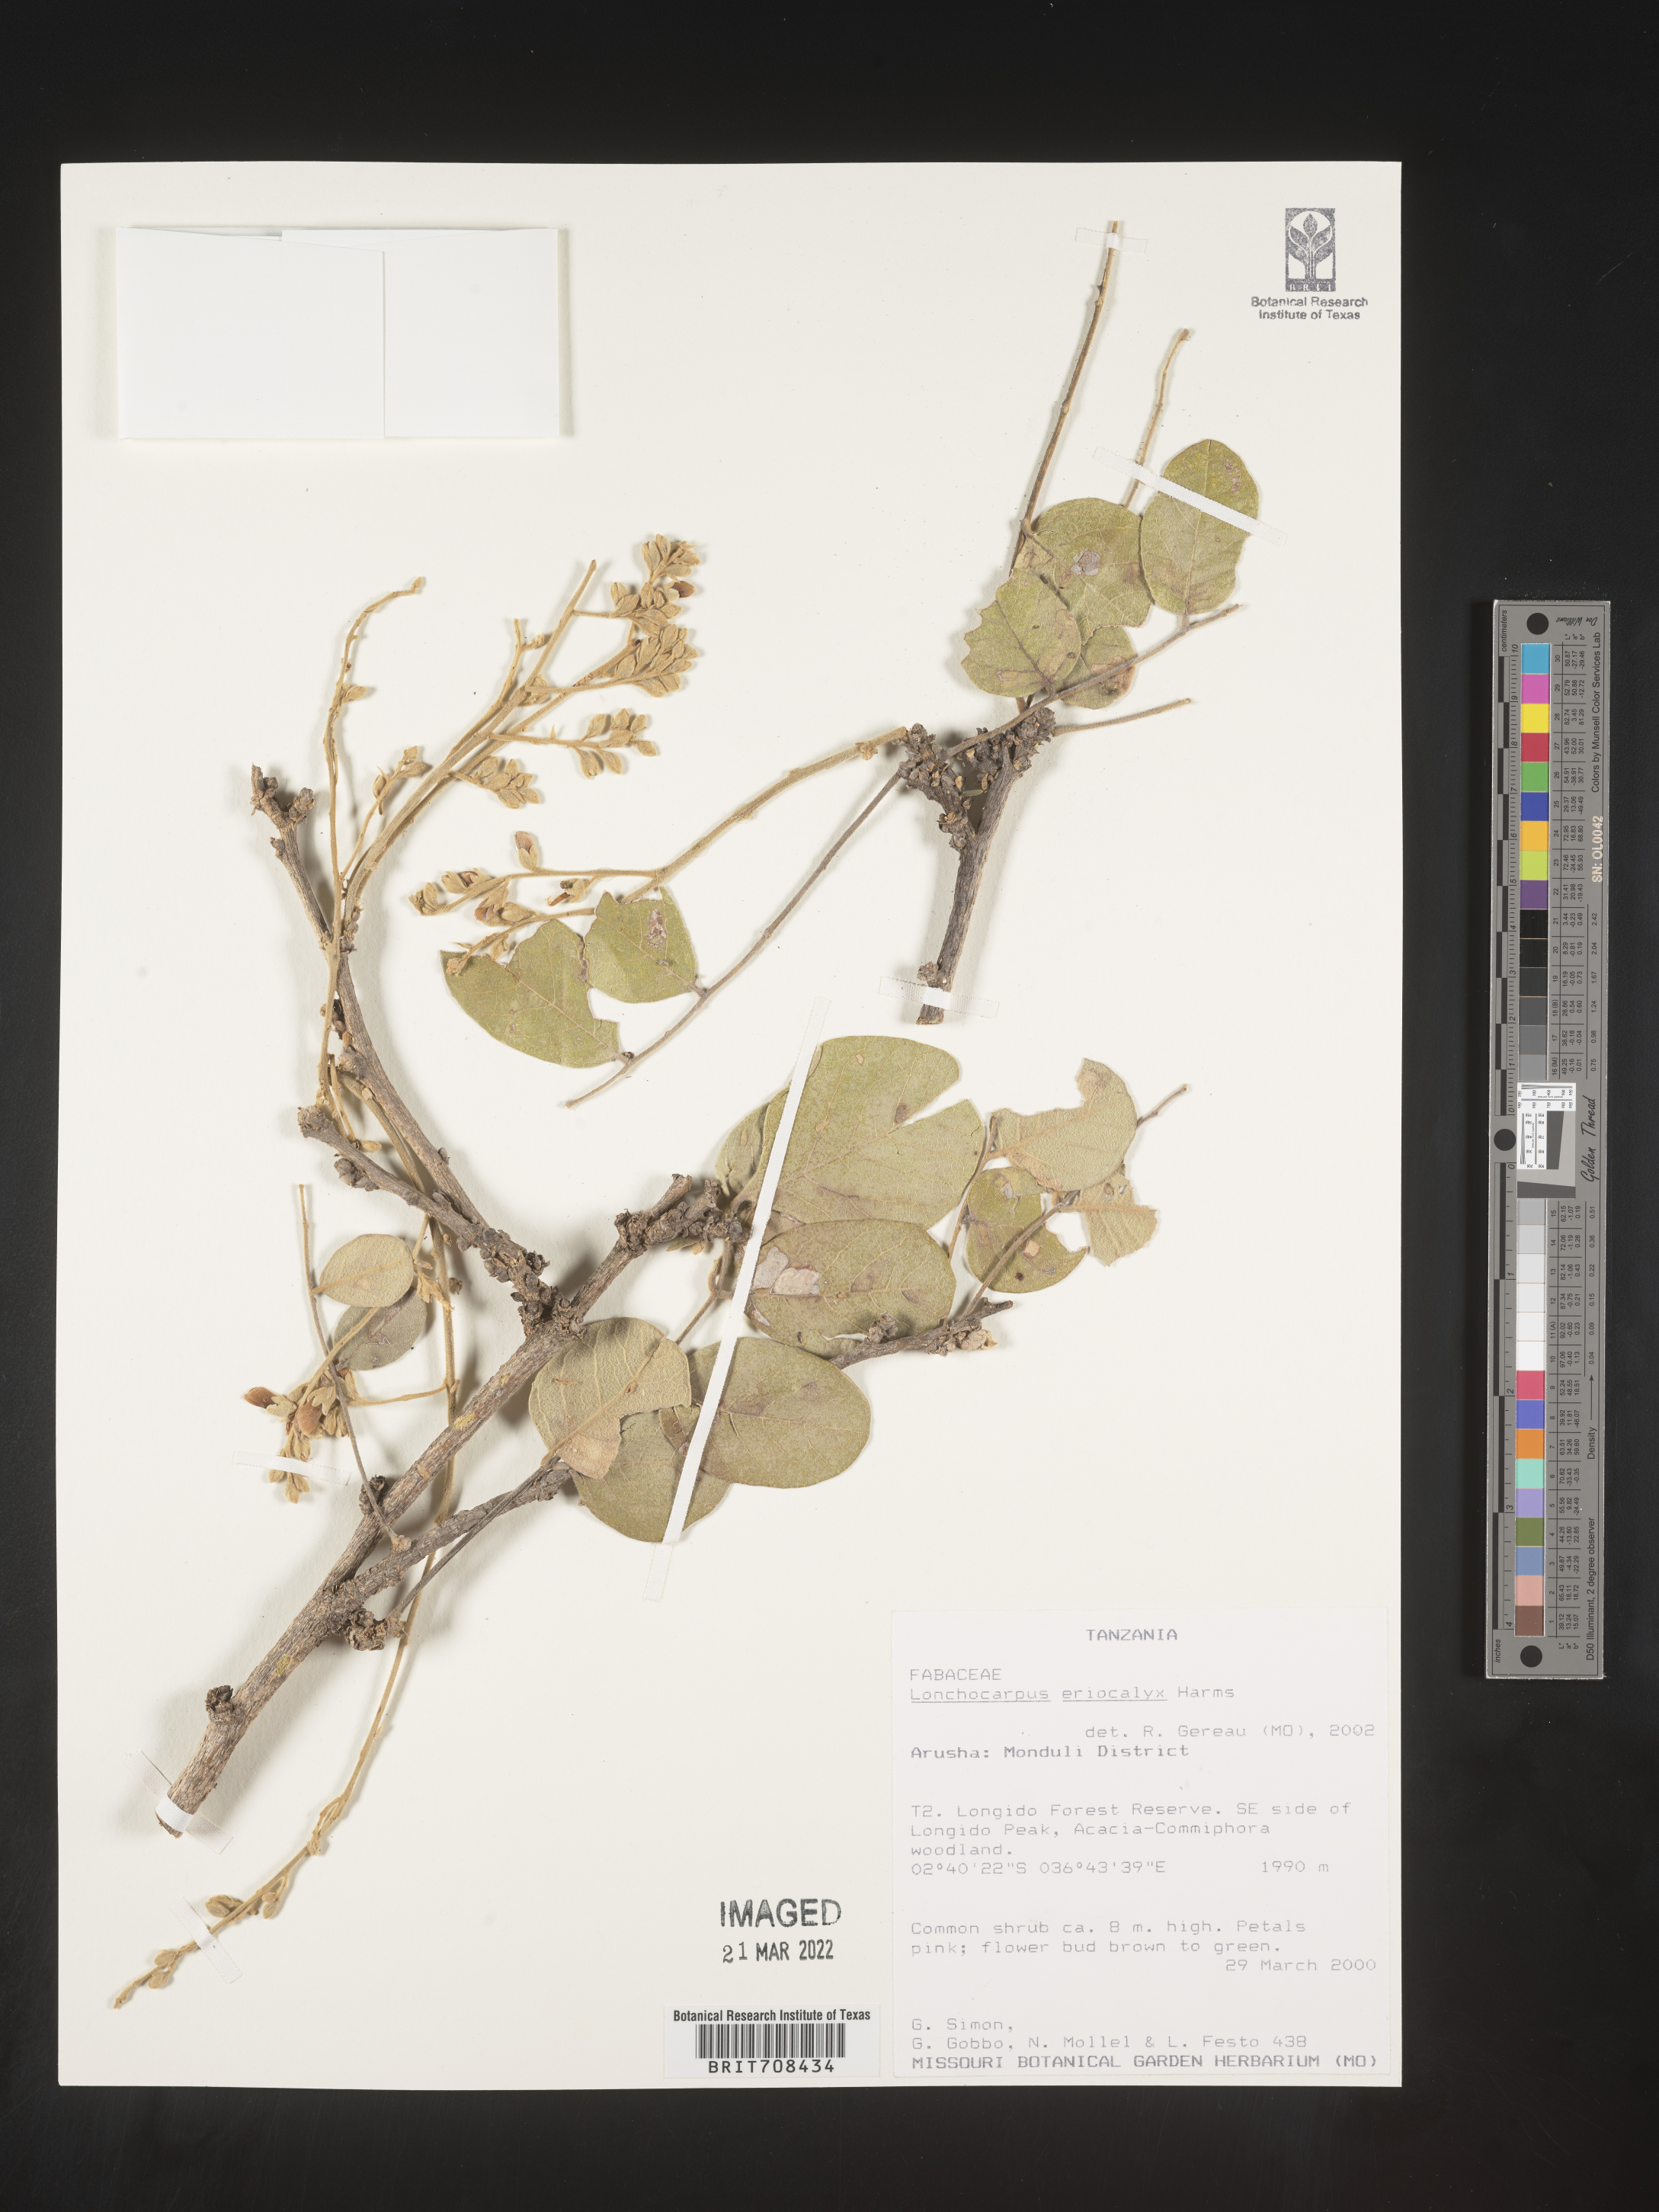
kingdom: Plantae
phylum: Tracheophyta
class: Magnoliopsida
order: Fabales
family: Fabaceae
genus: Lonchocarpus
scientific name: Lonchocarpus
